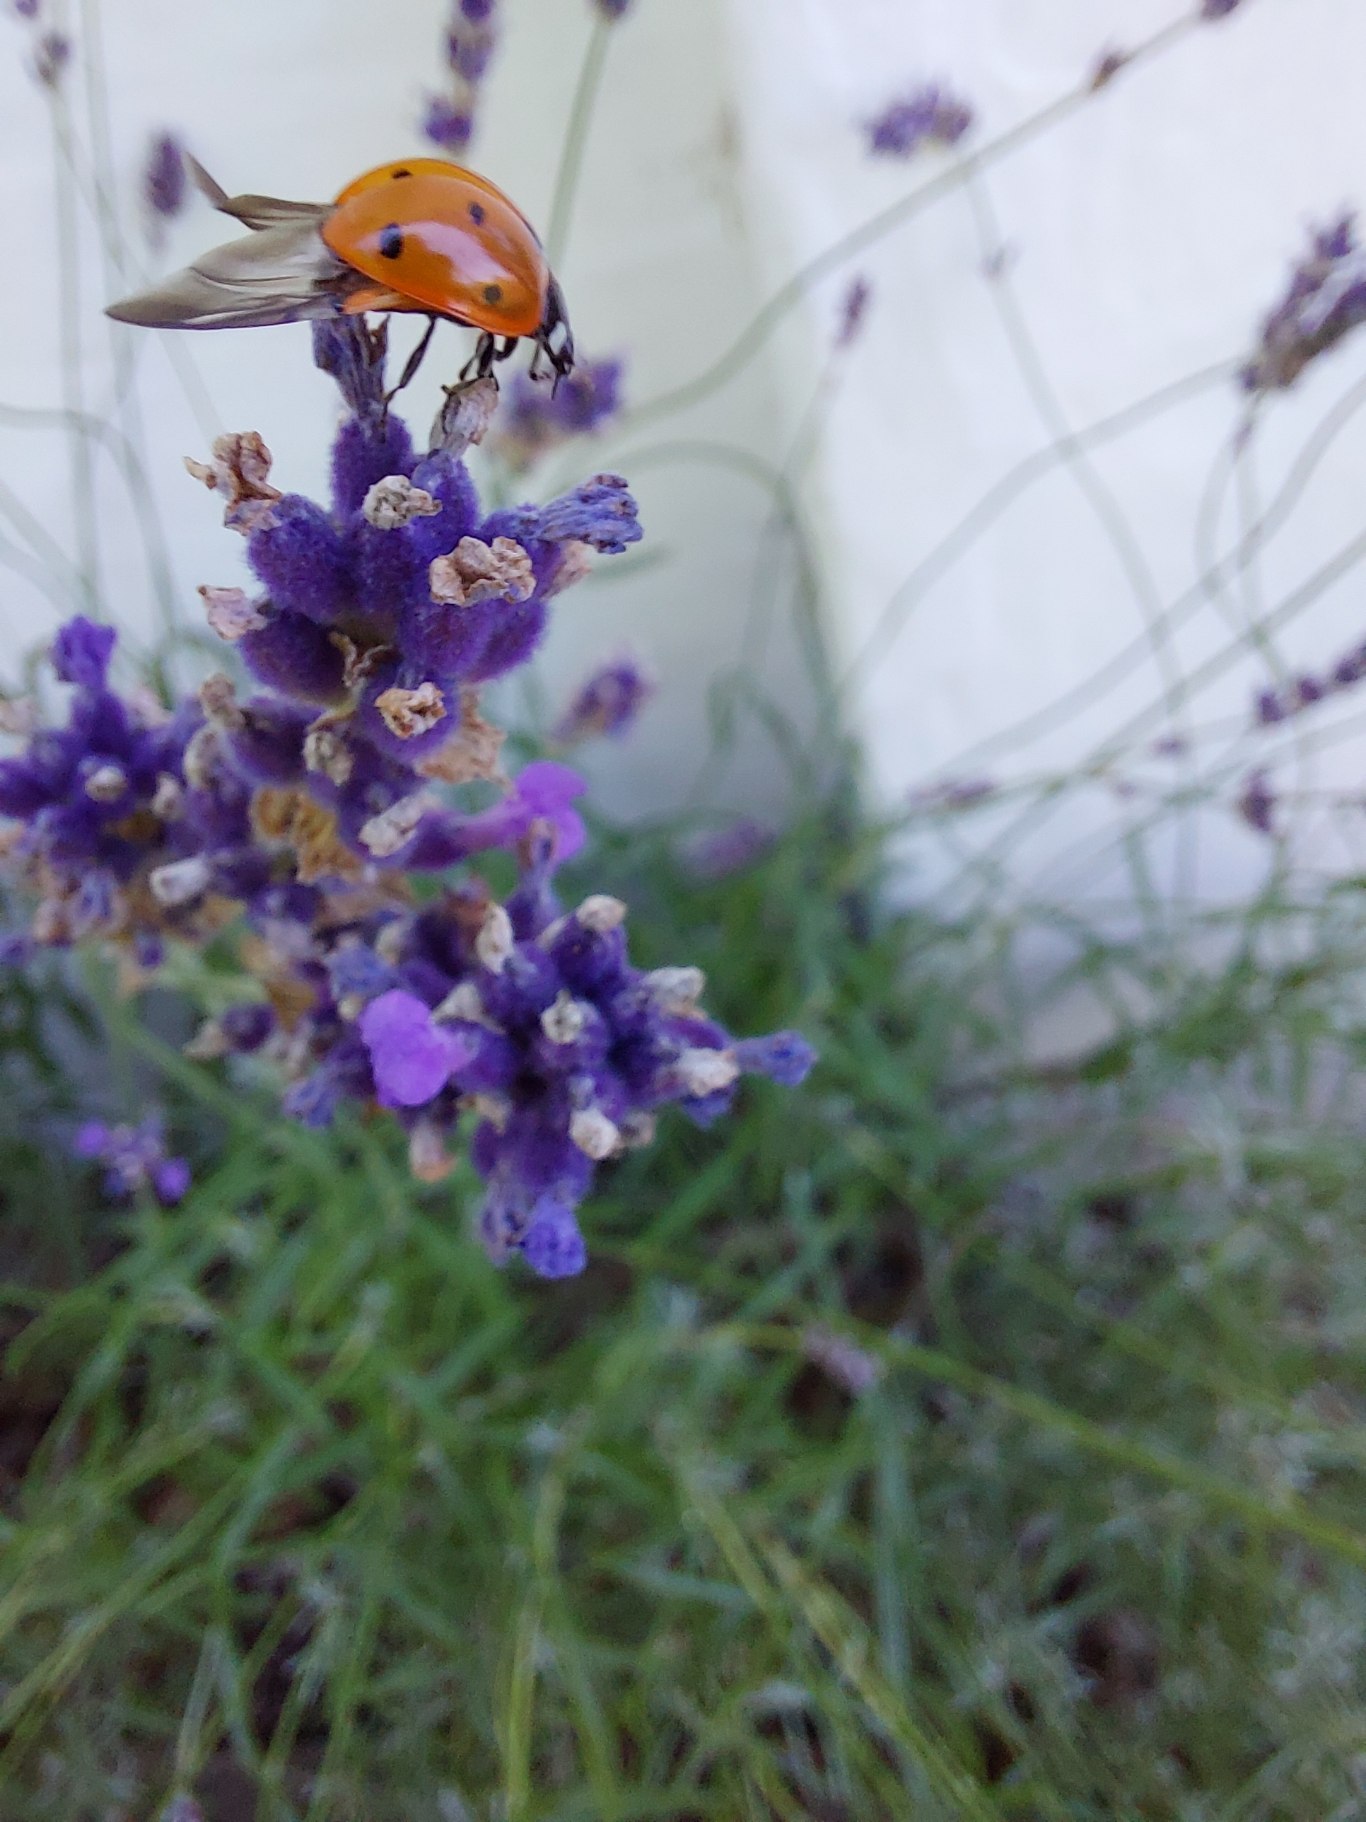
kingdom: Animalia
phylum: Arthropoda
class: Insecta
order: Coleoptera
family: Coccinellidae
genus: Coccinella
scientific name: Coccinella septempunctata
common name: Syvplettet mariehøne
